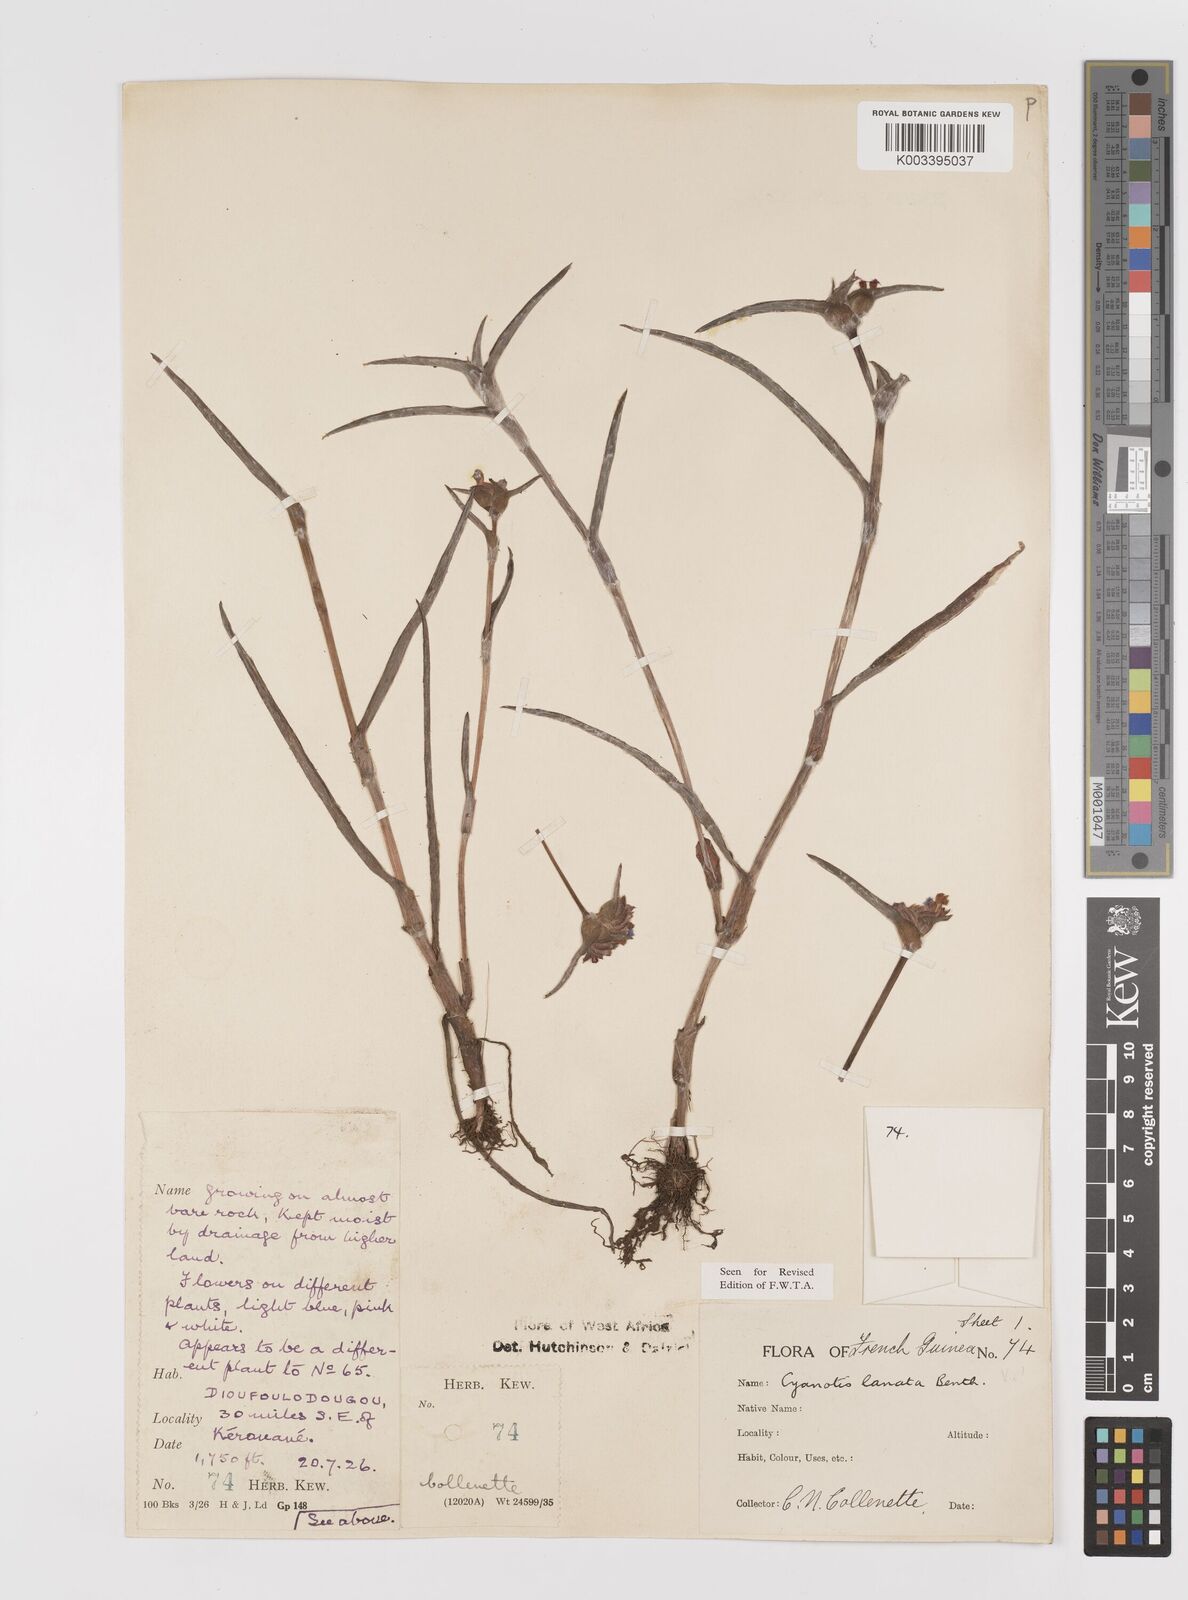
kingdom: Plantae
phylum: Tracheophyta
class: Liliopsida
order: Commelinales
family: Commelinaceae
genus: Cyanotis
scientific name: Cyanotis lanata
